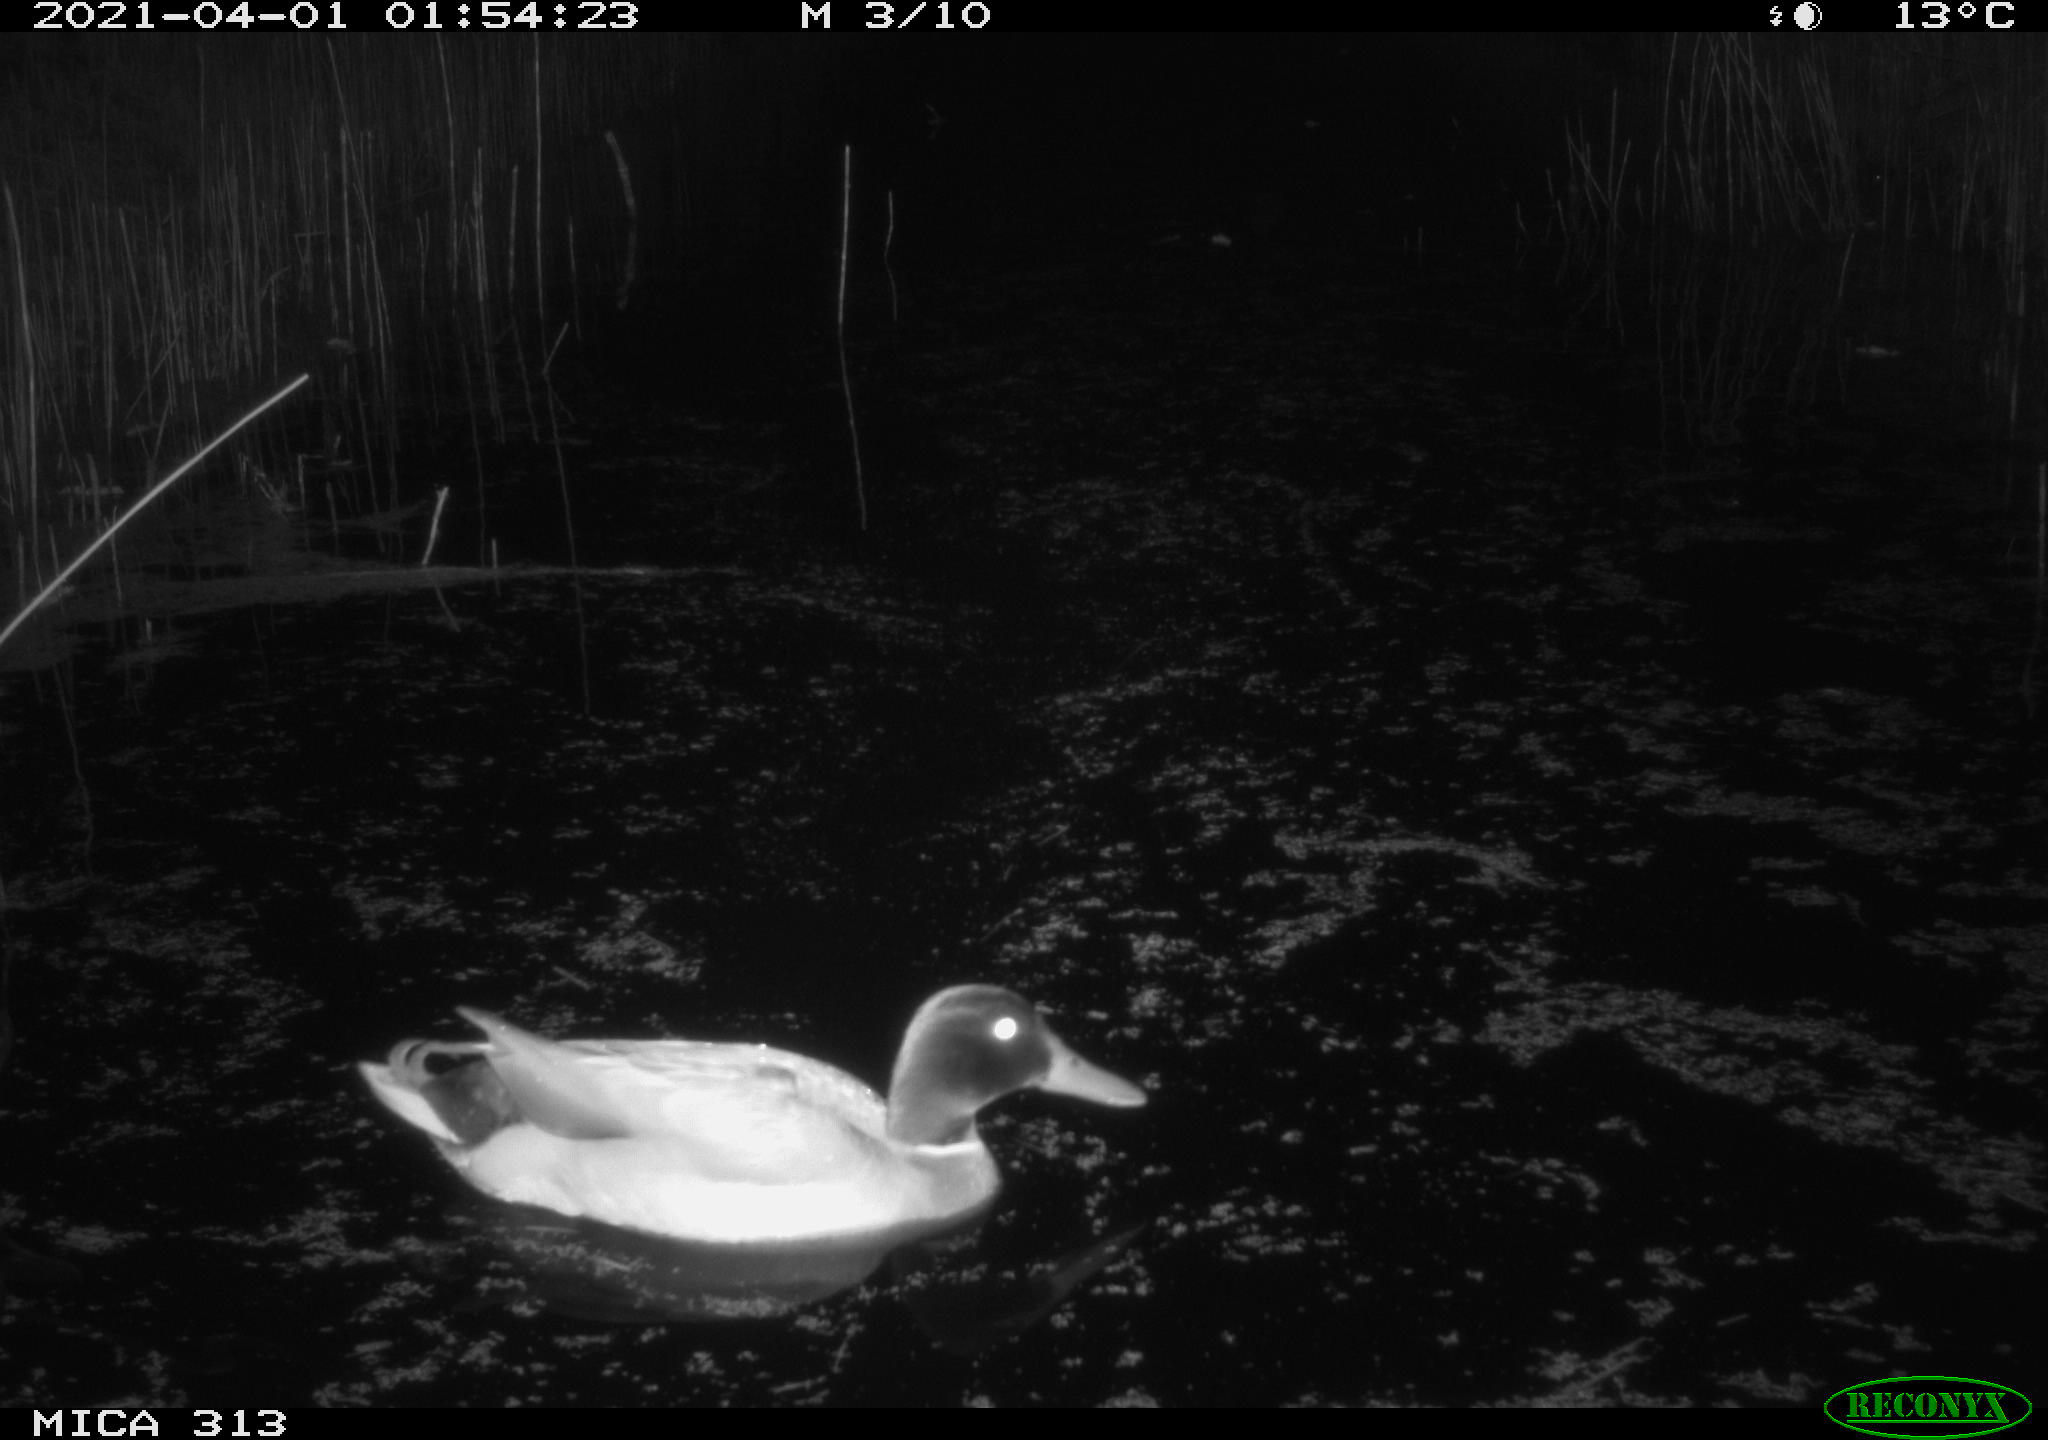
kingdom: Animalia
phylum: Chordata
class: Aves
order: Anseriformes
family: Anatidae
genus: Anas
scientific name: Anas platyrhynchos
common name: Mallard
